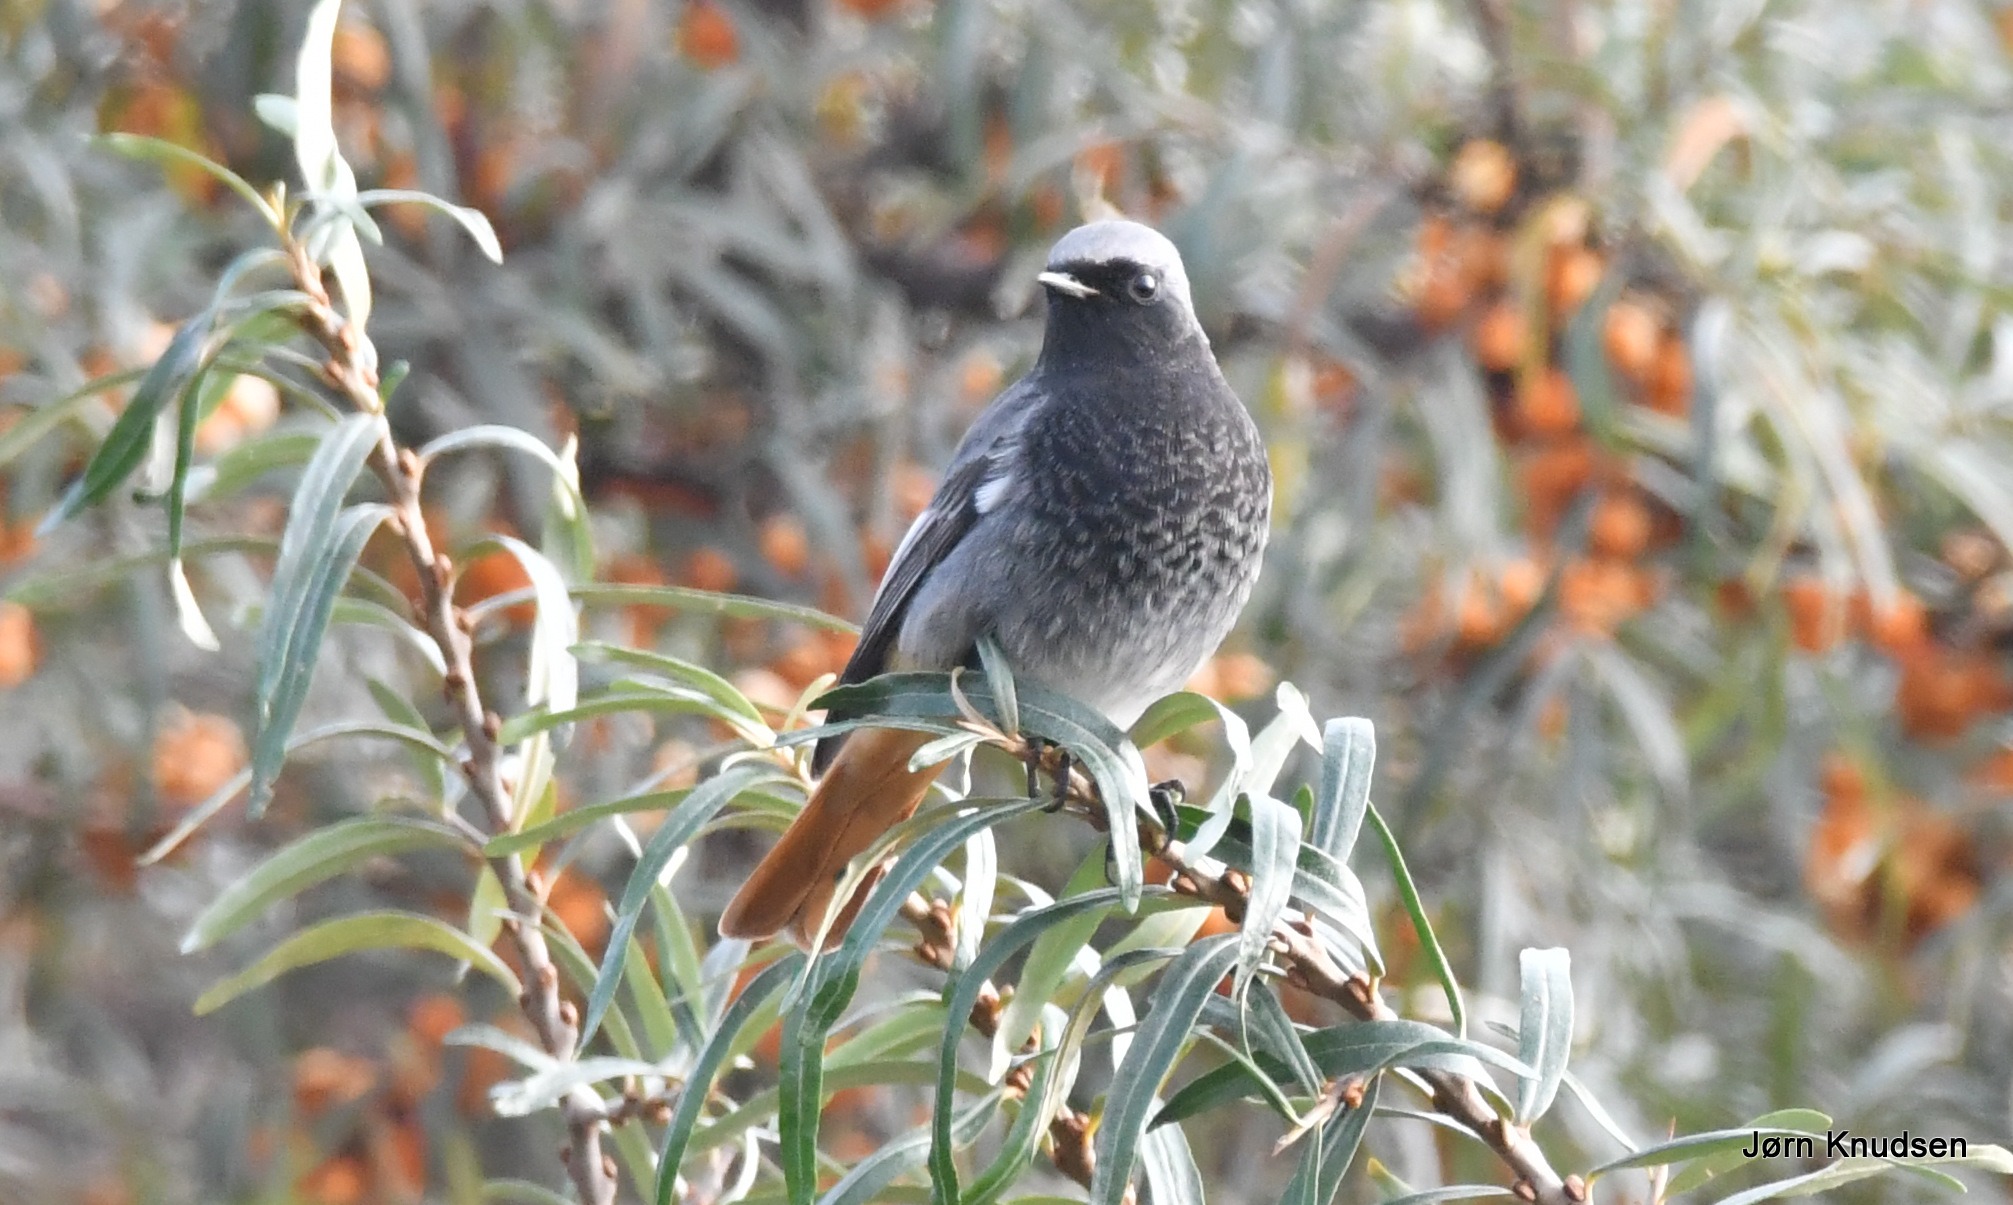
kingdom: Animalia
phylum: Chordata
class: Aves
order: Passeriformes
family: Muscicapidae
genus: Phoenicurus
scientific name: Phoenicurus ochruros
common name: Husrødstjert
